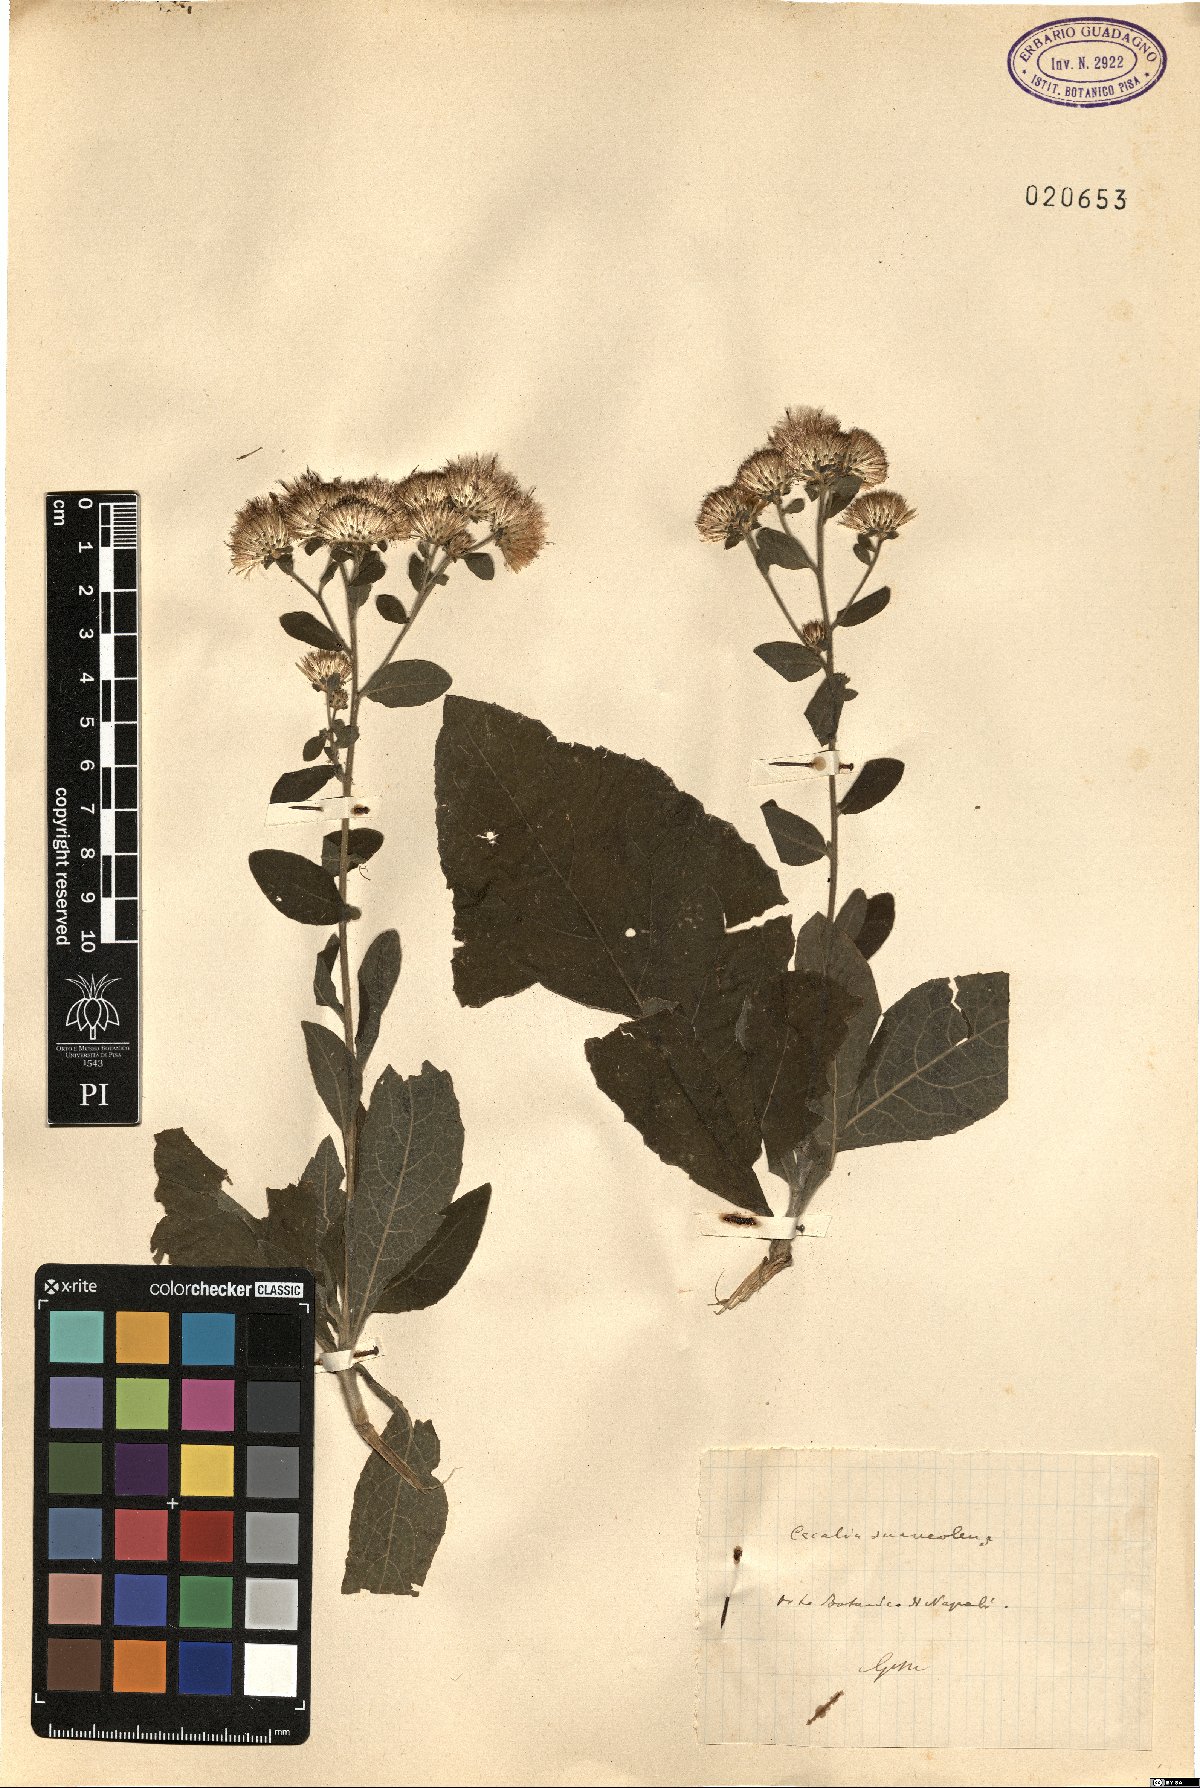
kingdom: Plantae
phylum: Tracheophyta
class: Magnoliopsida
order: Asterales
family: Asteraceae
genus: Hasteola
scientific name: Hasteola suaveolens
